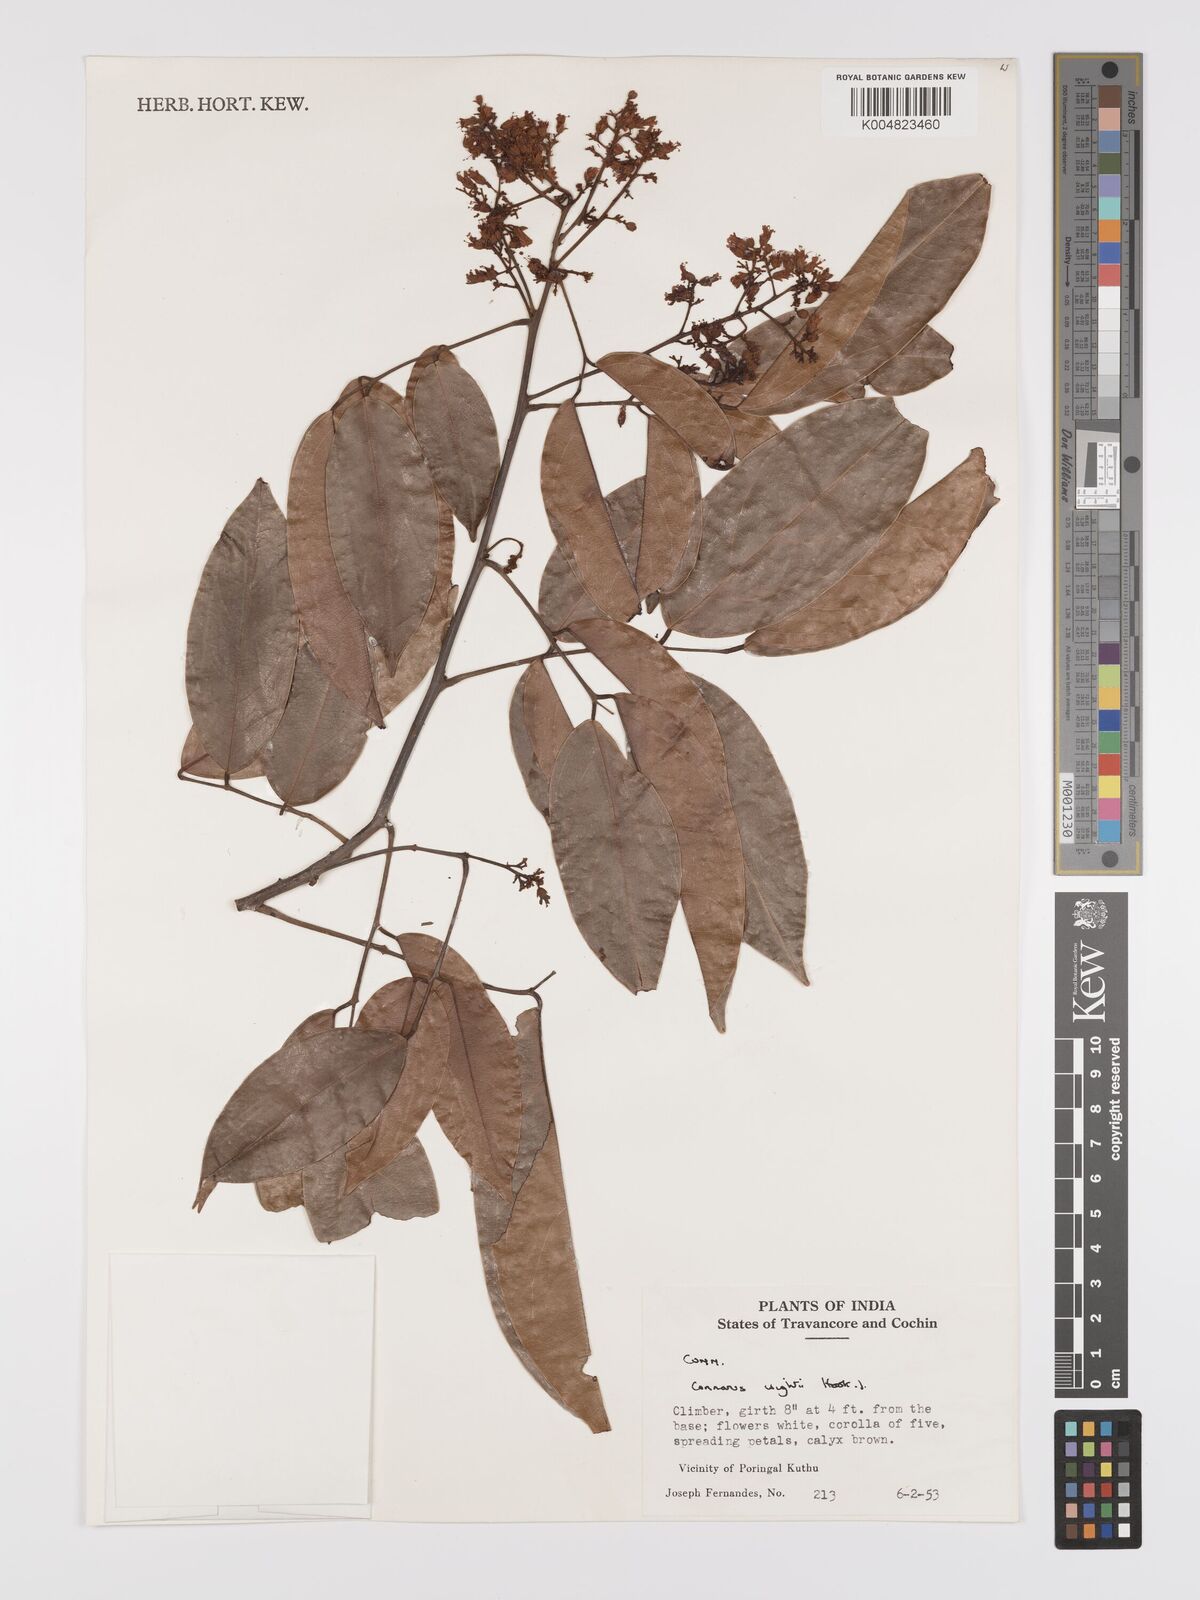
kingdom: Plantae
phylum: Tracheophyta
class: Magnoliopsida
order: Oxalidales
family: Connaraceae
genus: Connarus
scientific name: Connarus wightii
